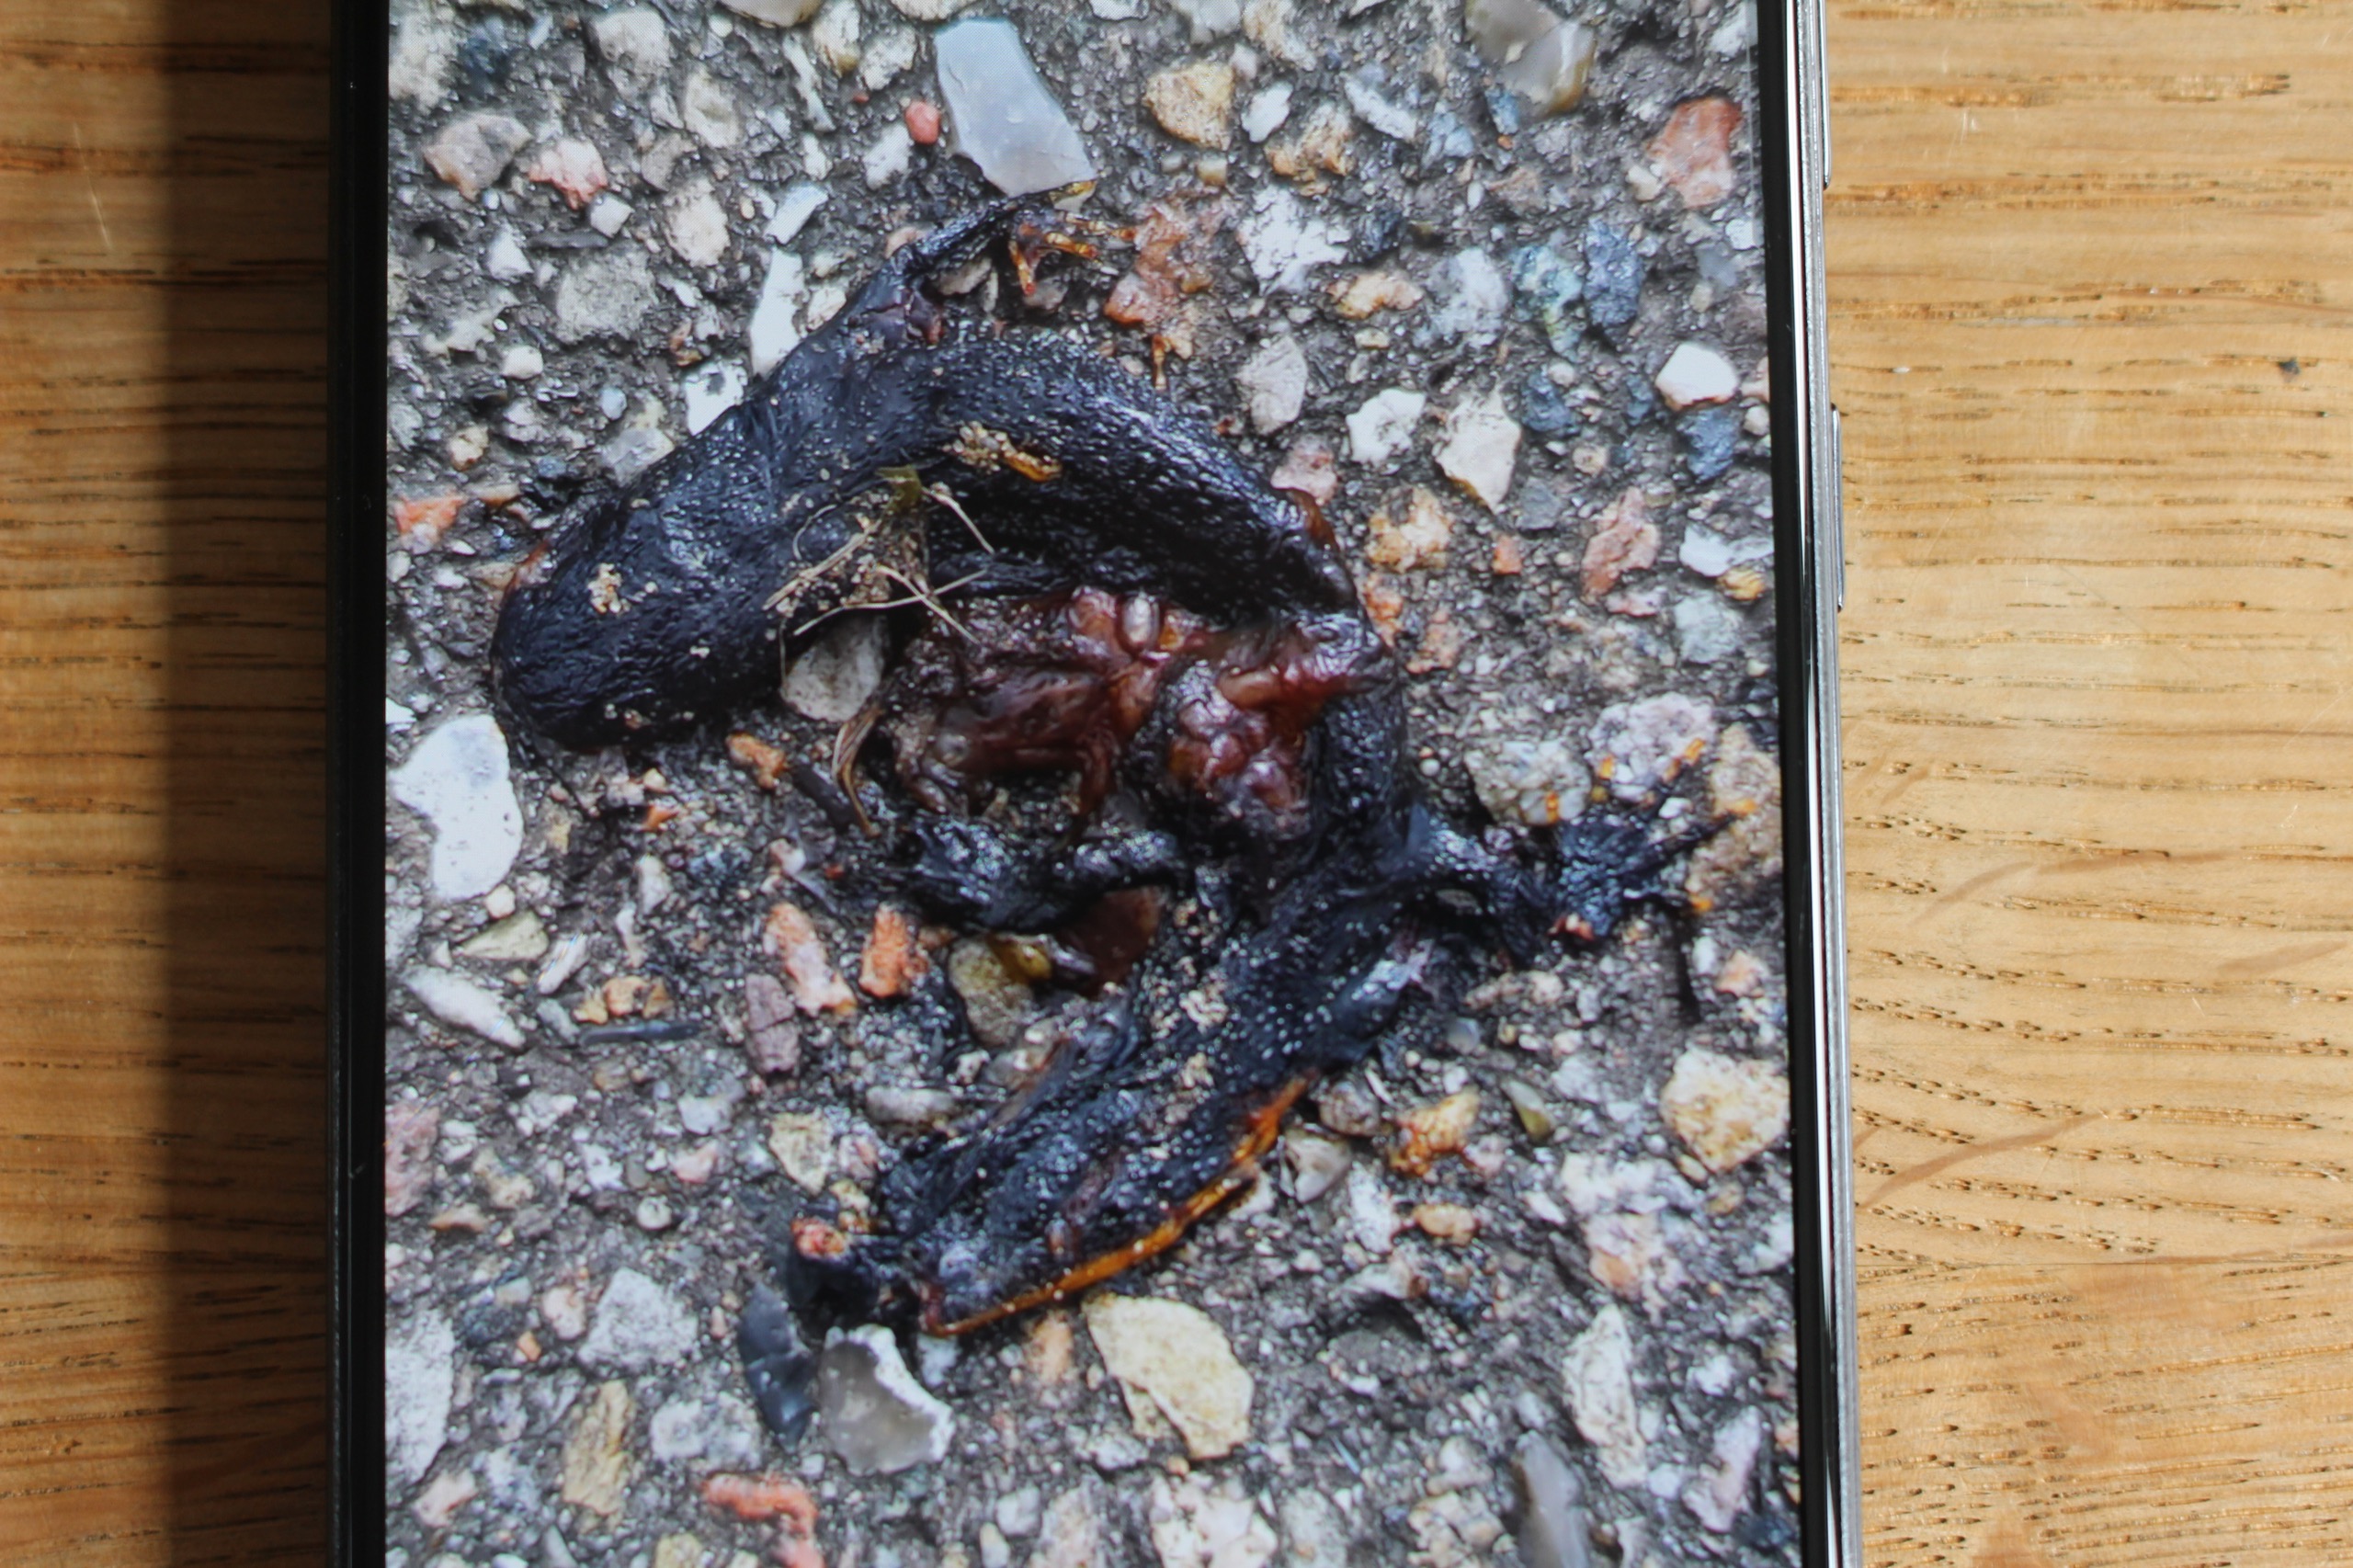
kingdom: Animalia
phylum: Chordata
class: Amphibia
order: Caudata
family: Salamandridae
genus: Triturus
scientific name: Triturus cristatus
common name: Stor vandsalamander
